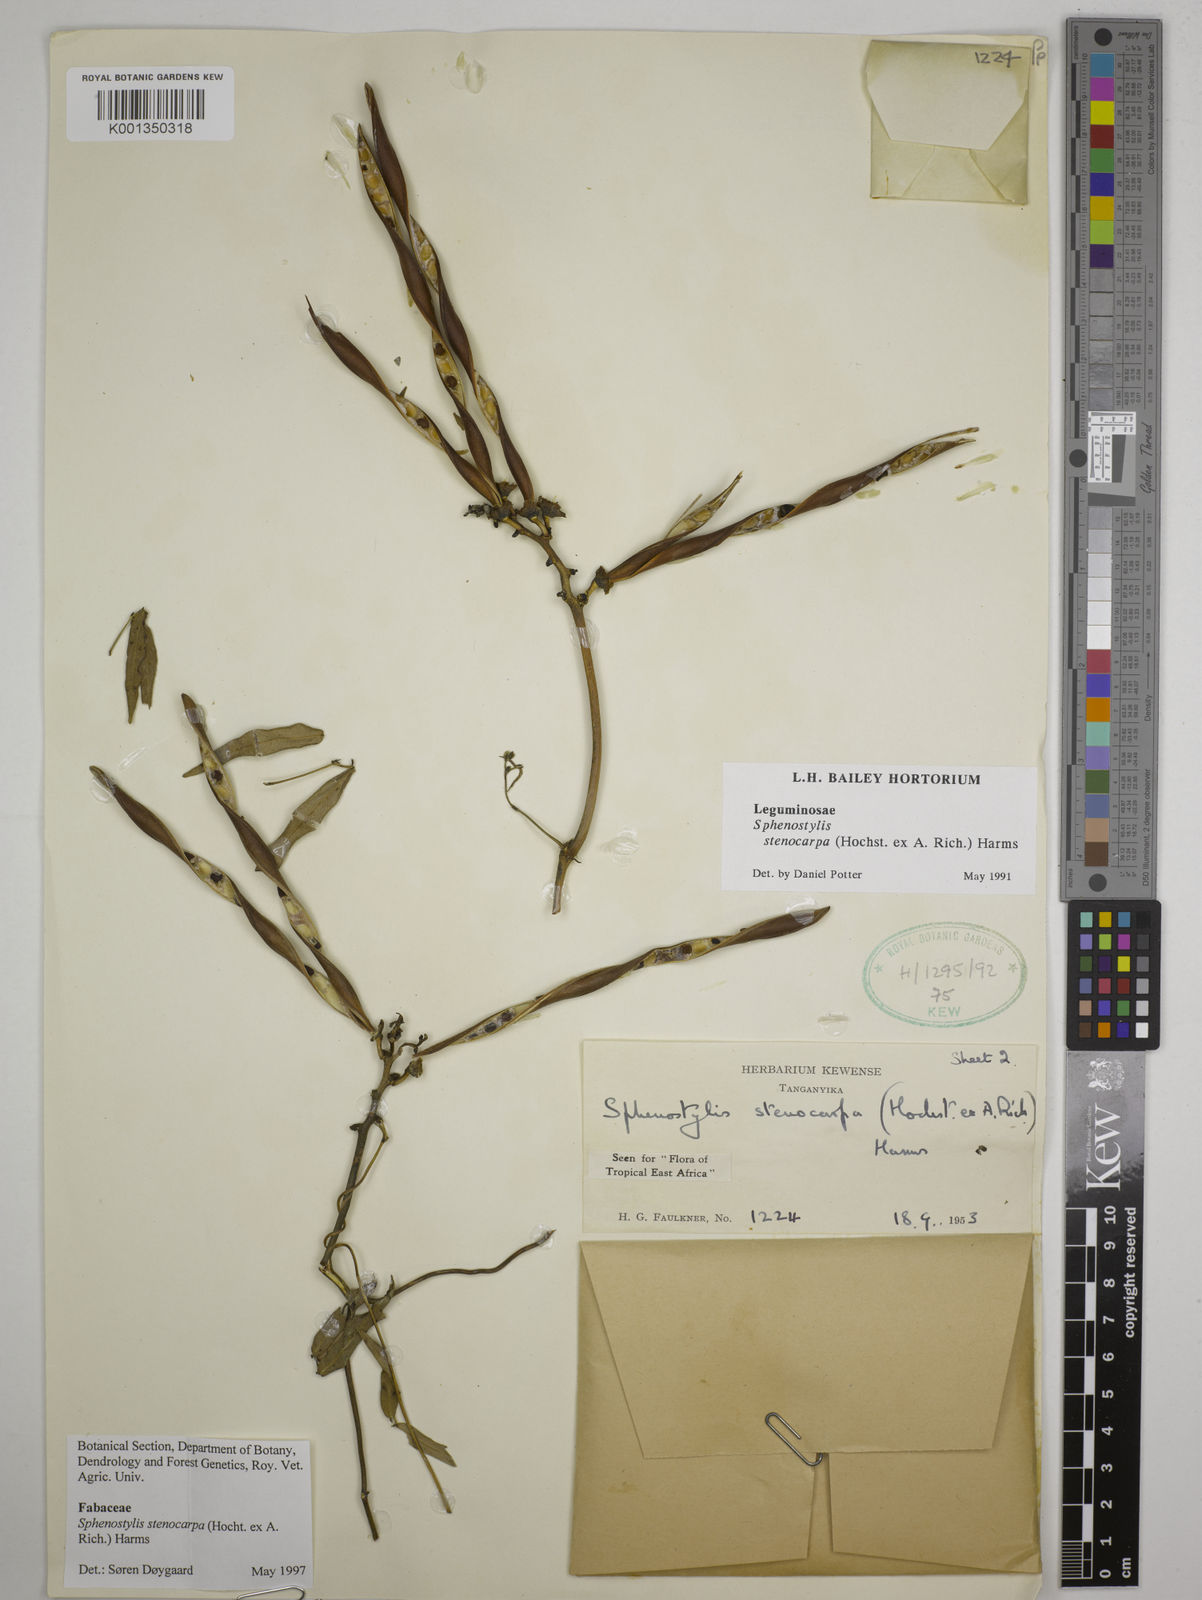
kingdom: Plantae
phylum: Tracheophyta
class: Magnoliopsida
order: Fabales
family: Fabaceae
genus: Sphenostylis
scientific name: Sphenostylis stenocarpa
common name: Yam-pea
